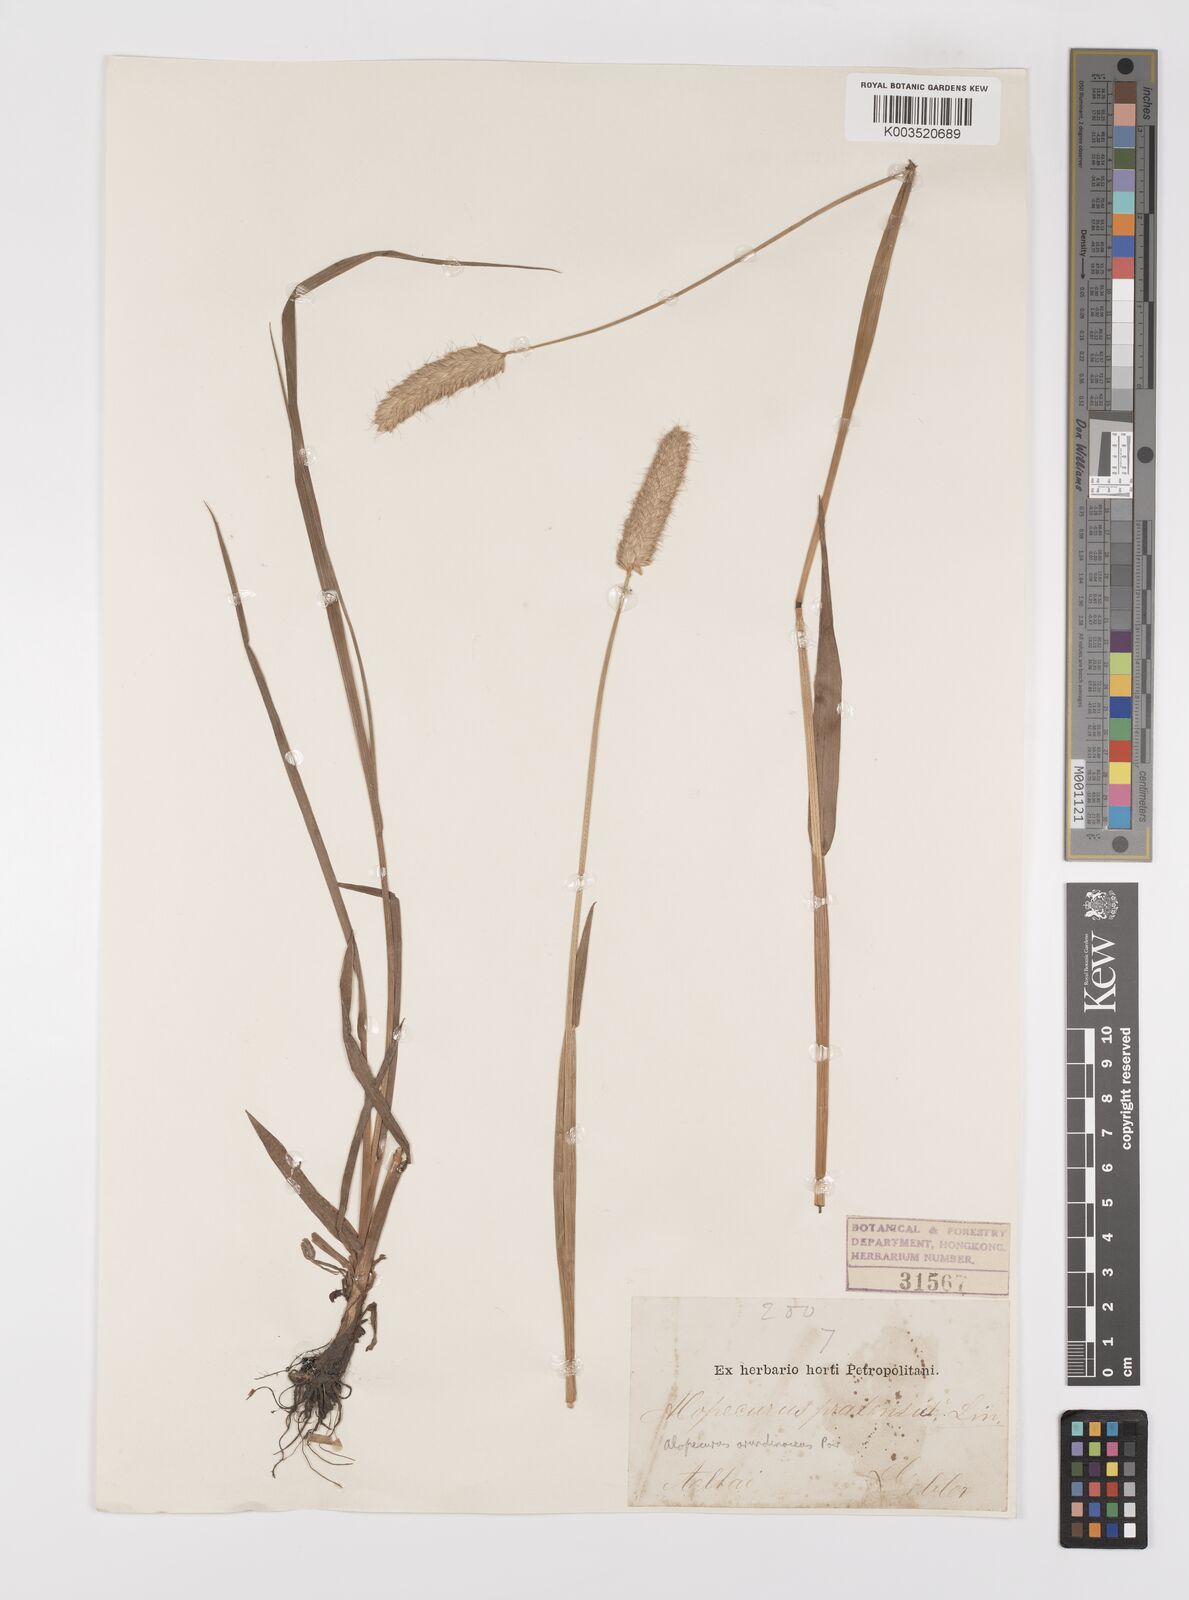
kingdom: Plantae
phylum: Tracheophyta
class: Liliopsida
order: Poales
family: Poaceae
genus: Alopecurus
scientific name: Alopecurus arundinaceus
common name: Creeping meadow foxtail
